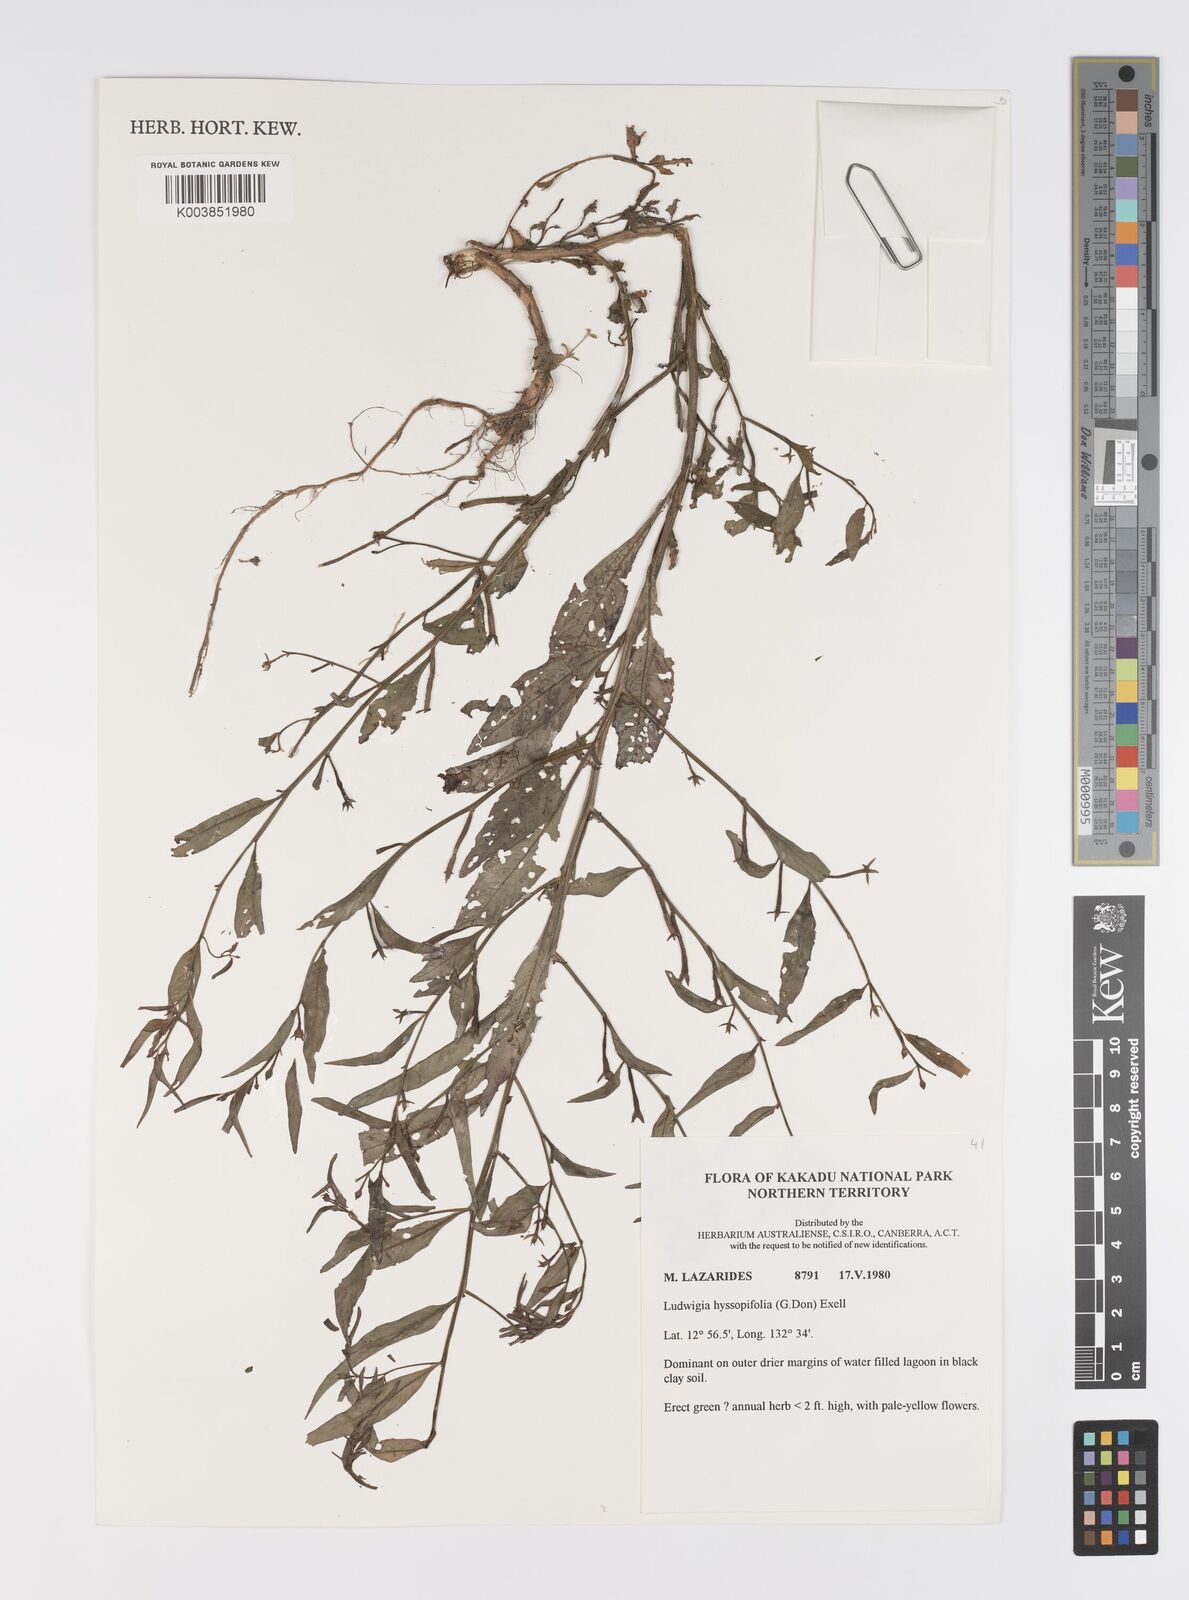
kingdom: Plantae
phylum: Tracheophyta
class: Magnoliopsida
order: Myrtales
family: Onagraceae
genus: Ludwigia
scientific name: Ludwigia hyssopifolia
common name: Linear leaf water primrose
